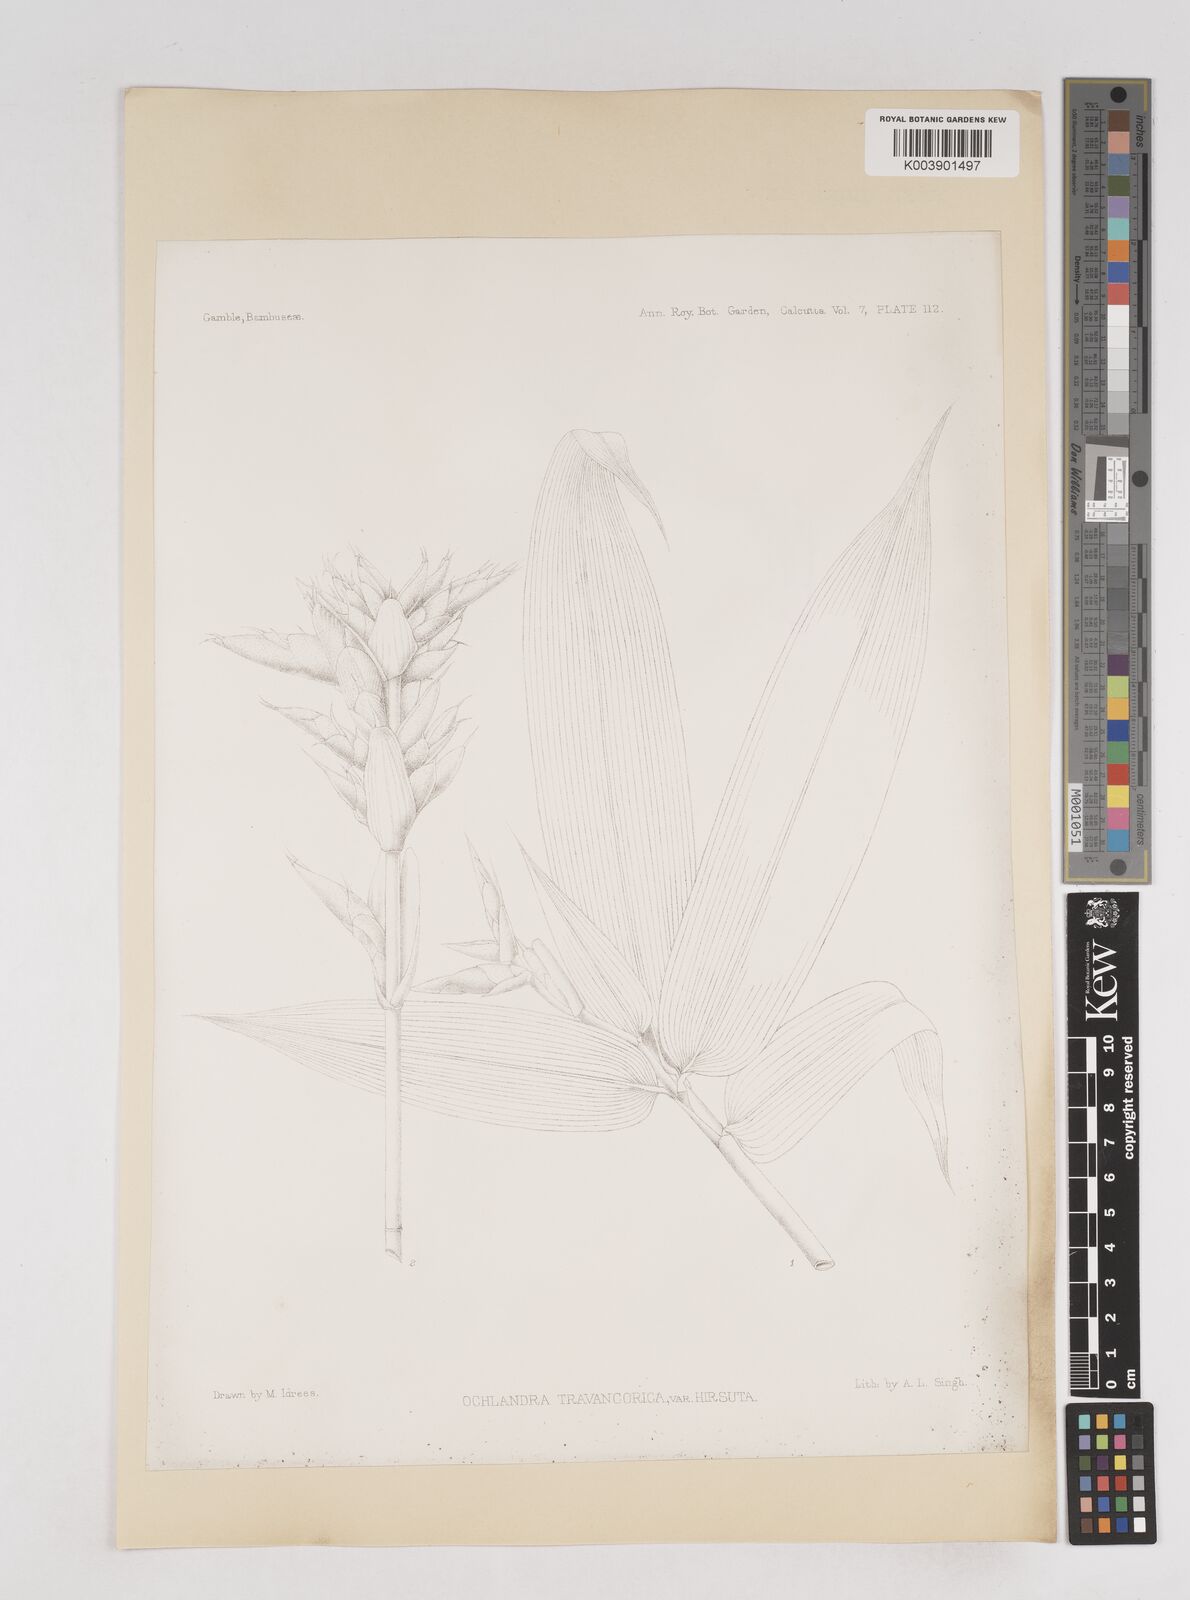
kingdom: Plantae
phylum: Tracheophyta
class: Liliopsida
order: Poales
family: Poaceae
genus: Ochlandra
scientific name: Ochlandra travancorica
